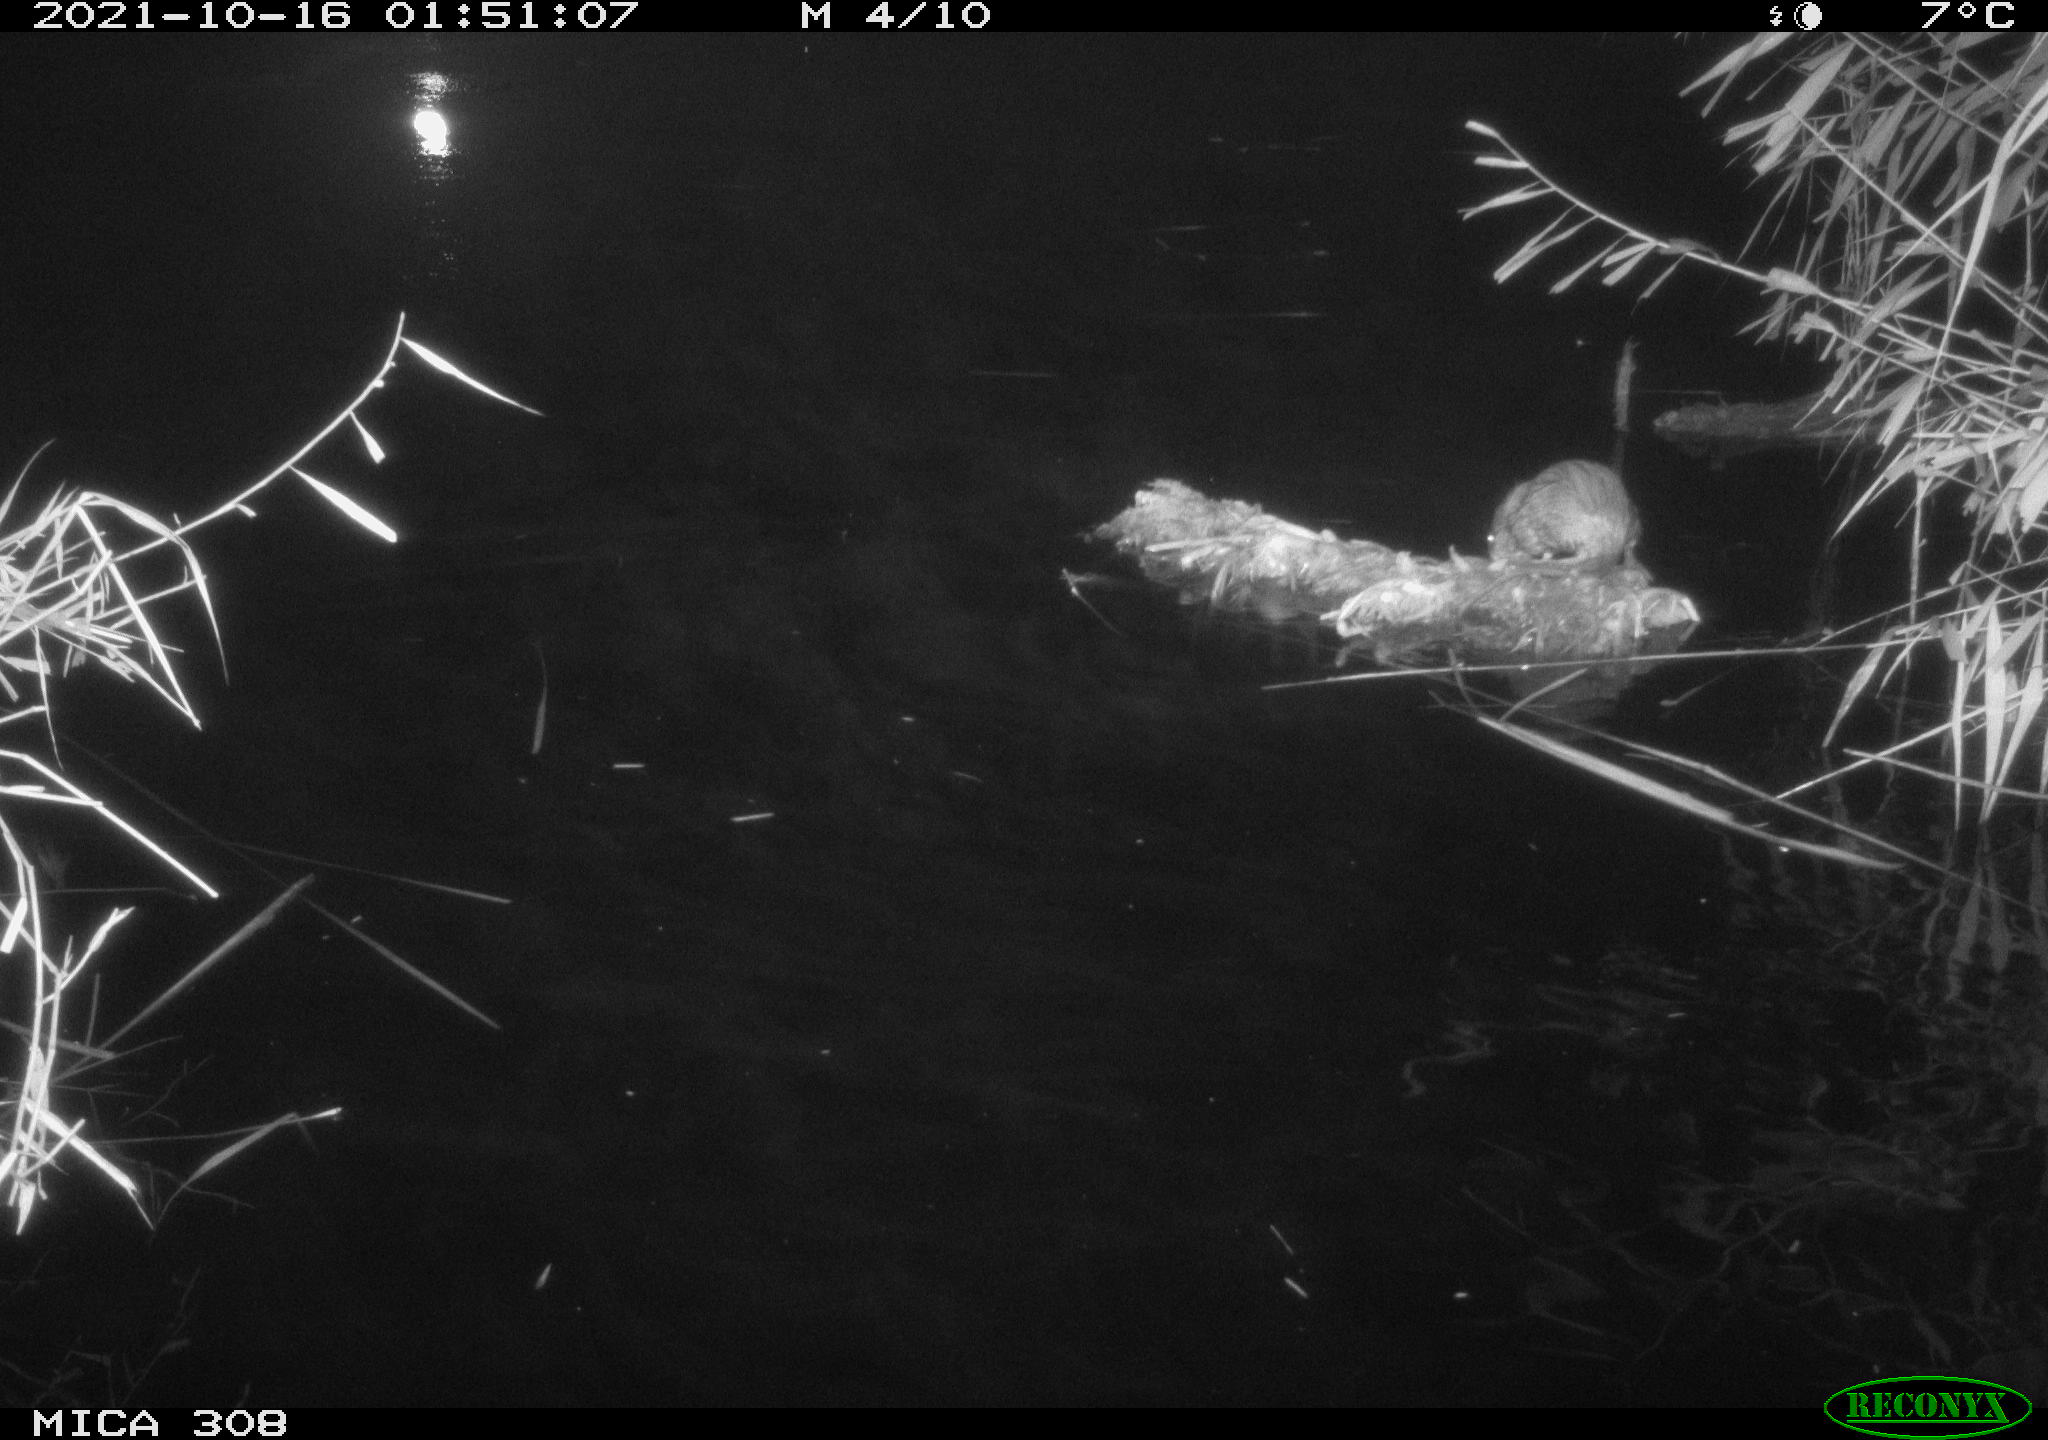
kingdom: Animalia
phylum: Chordata
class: Mammalia
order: Rodentia
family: Muridae
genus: Rattus
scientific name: Rattus norvegicus
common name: Brown rat
